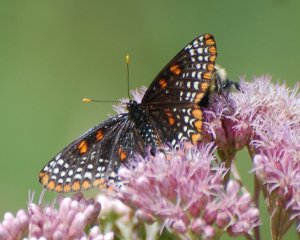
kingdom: Animalia
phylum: Arthropoda
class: Insecta
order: Lepidoptera
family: Nymphalidae
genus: Euphydryas
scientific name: Euphydryas phaeton
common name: Baltimore Checkerspot
